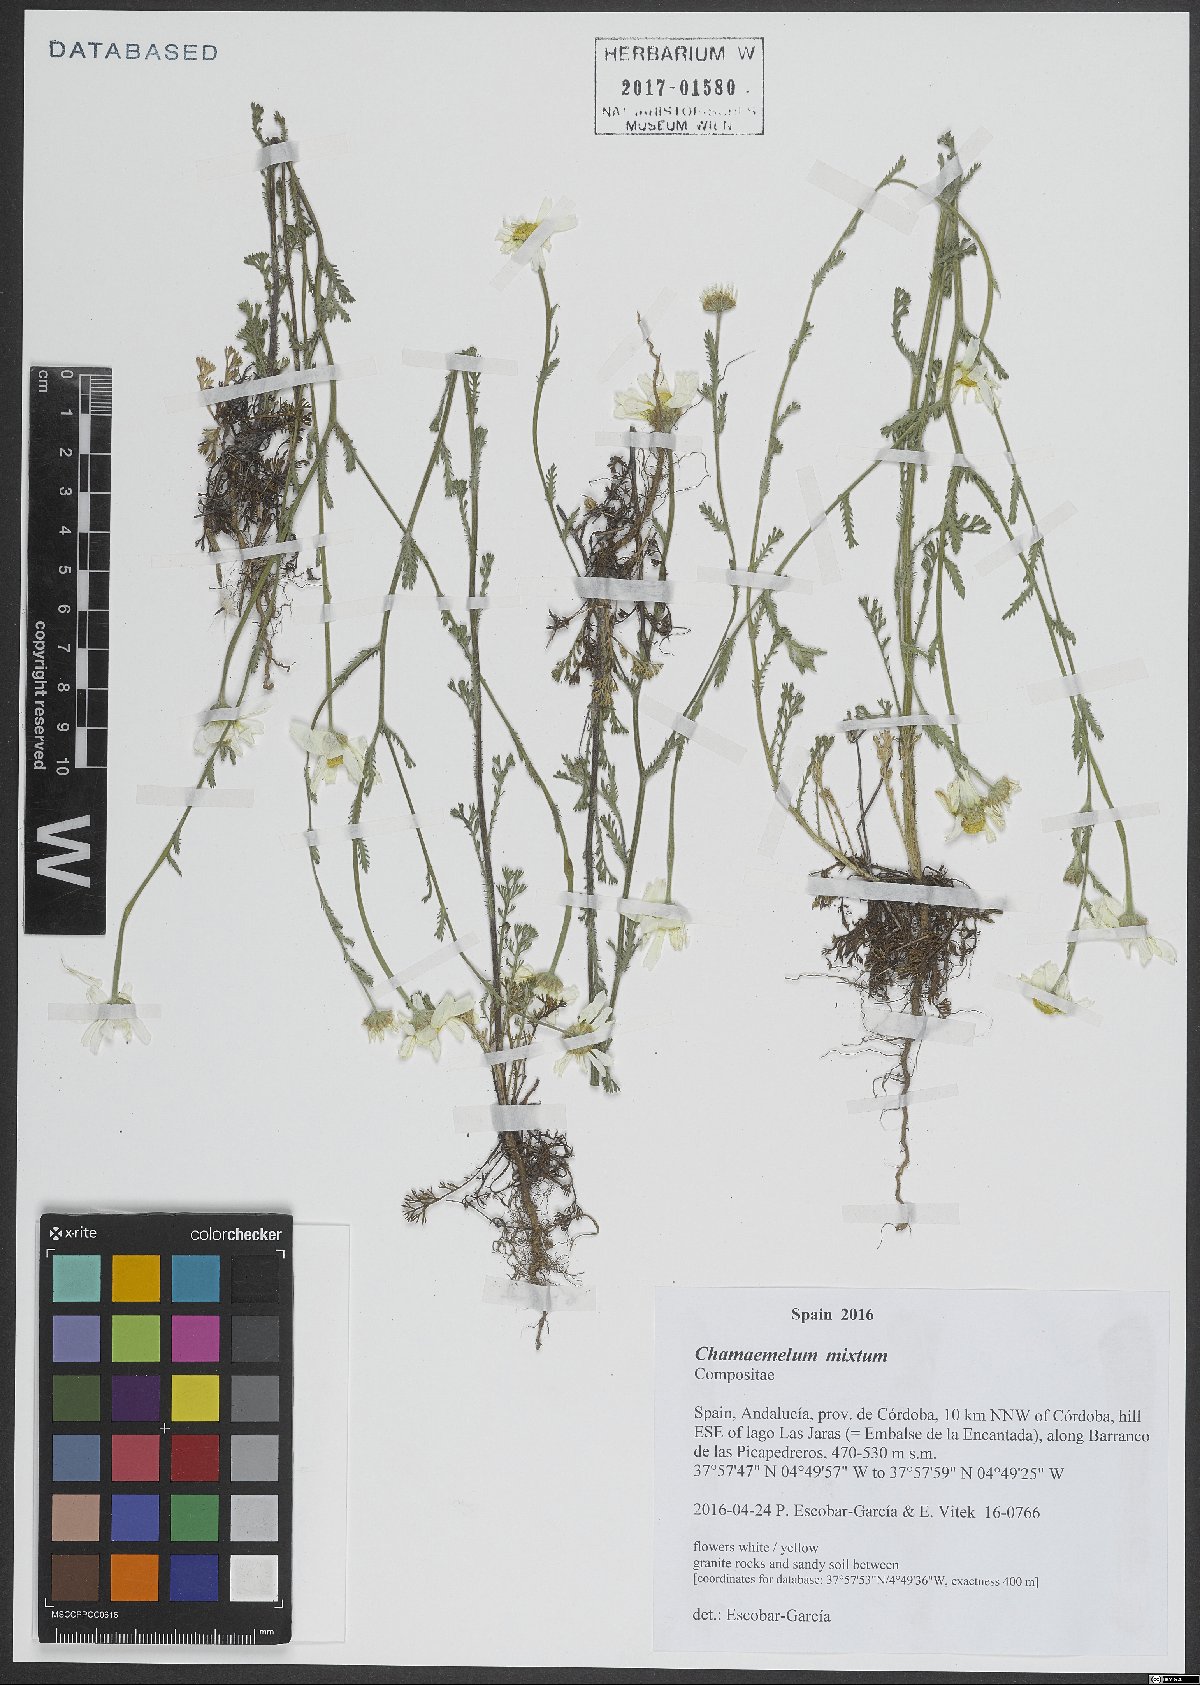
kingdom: Plantae
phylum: Tracheophyta
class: Magnoliopsida
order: Asterales
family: Asteraceae
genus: Cladanthus
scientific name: Cladanthus mixtus
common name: Weedy dogfennel
